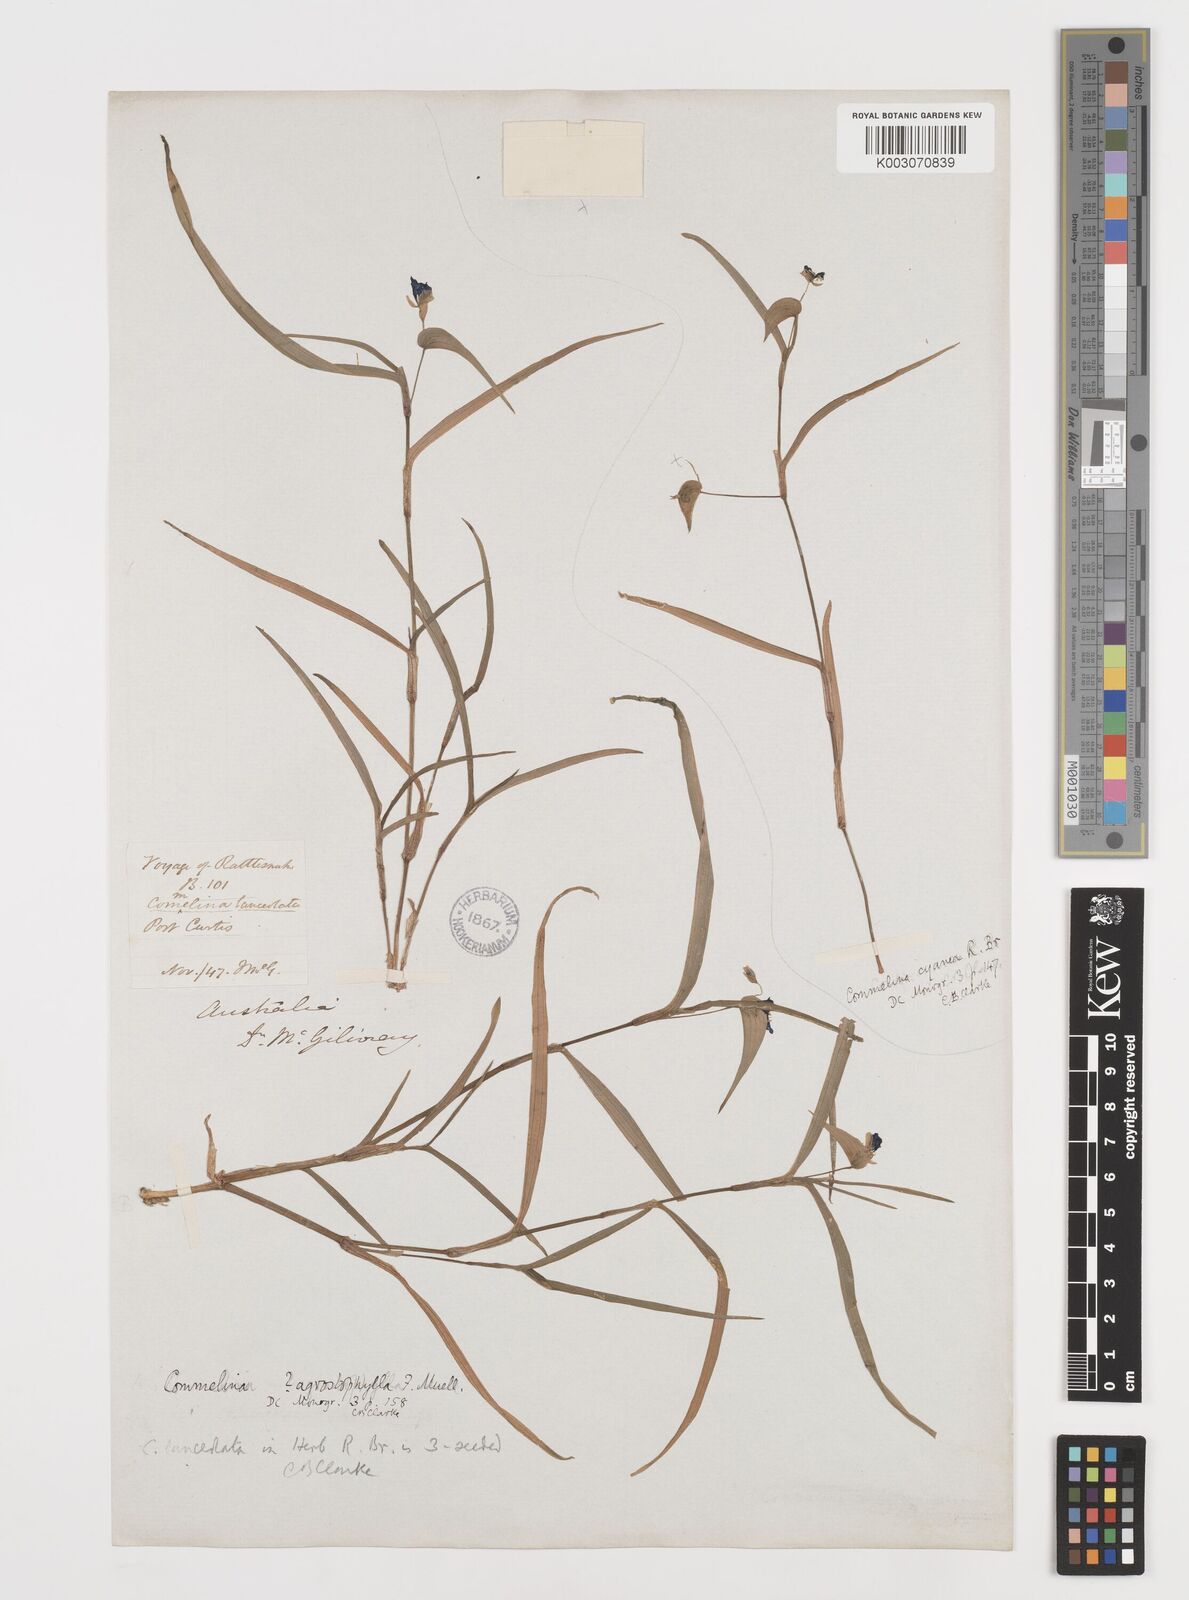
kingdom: Plantae
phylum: Tracheophyta
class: Liliopsida
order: Commelinales
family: Commelinaceae
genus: Commelina
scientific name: Commelina agrostophylla
